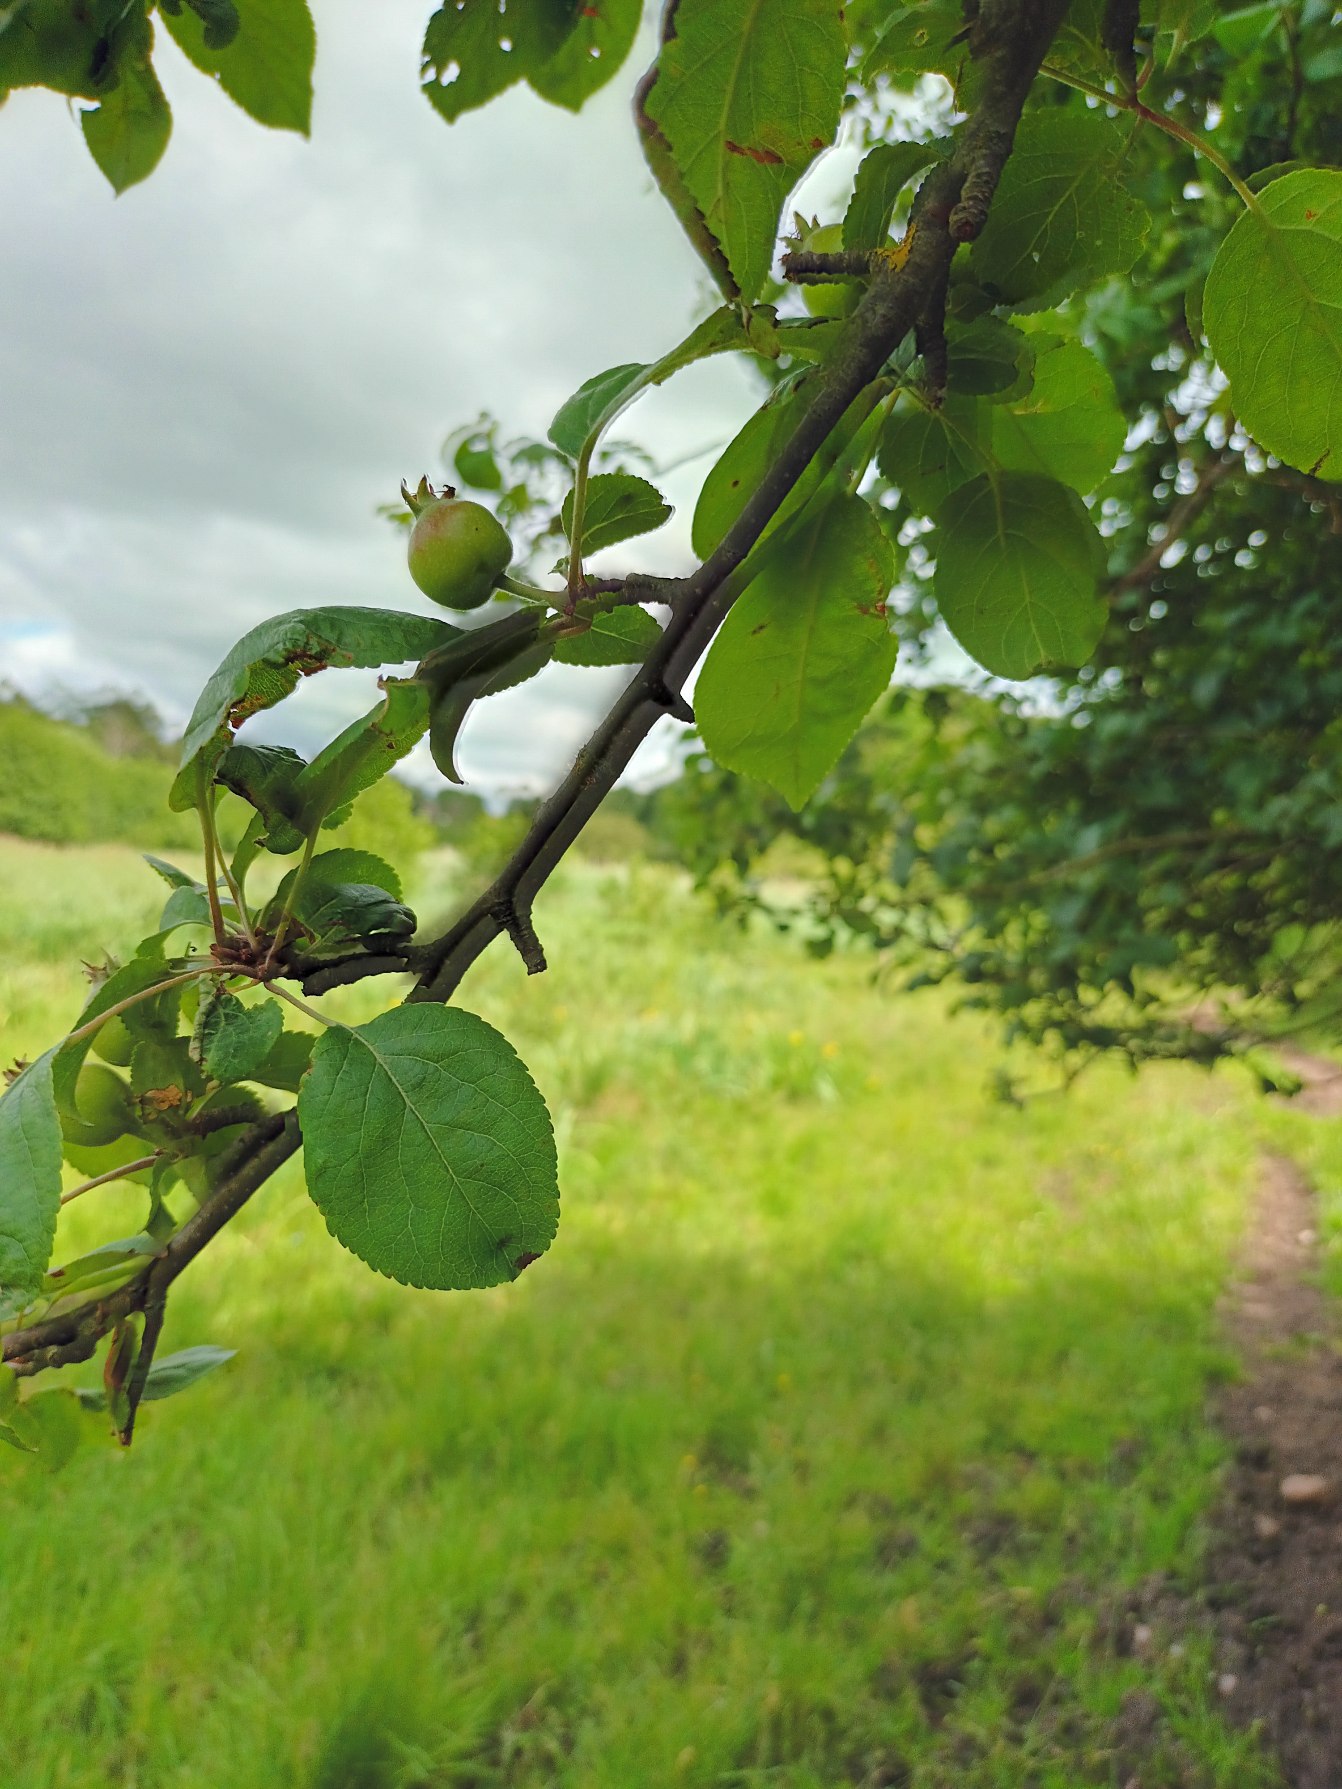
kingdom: Plantae
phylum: Tracheophyta
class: Magnoliopsida
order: Rosales
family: Rosaceae
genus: Malus
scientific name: Malus domestica
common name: Sød-æble
